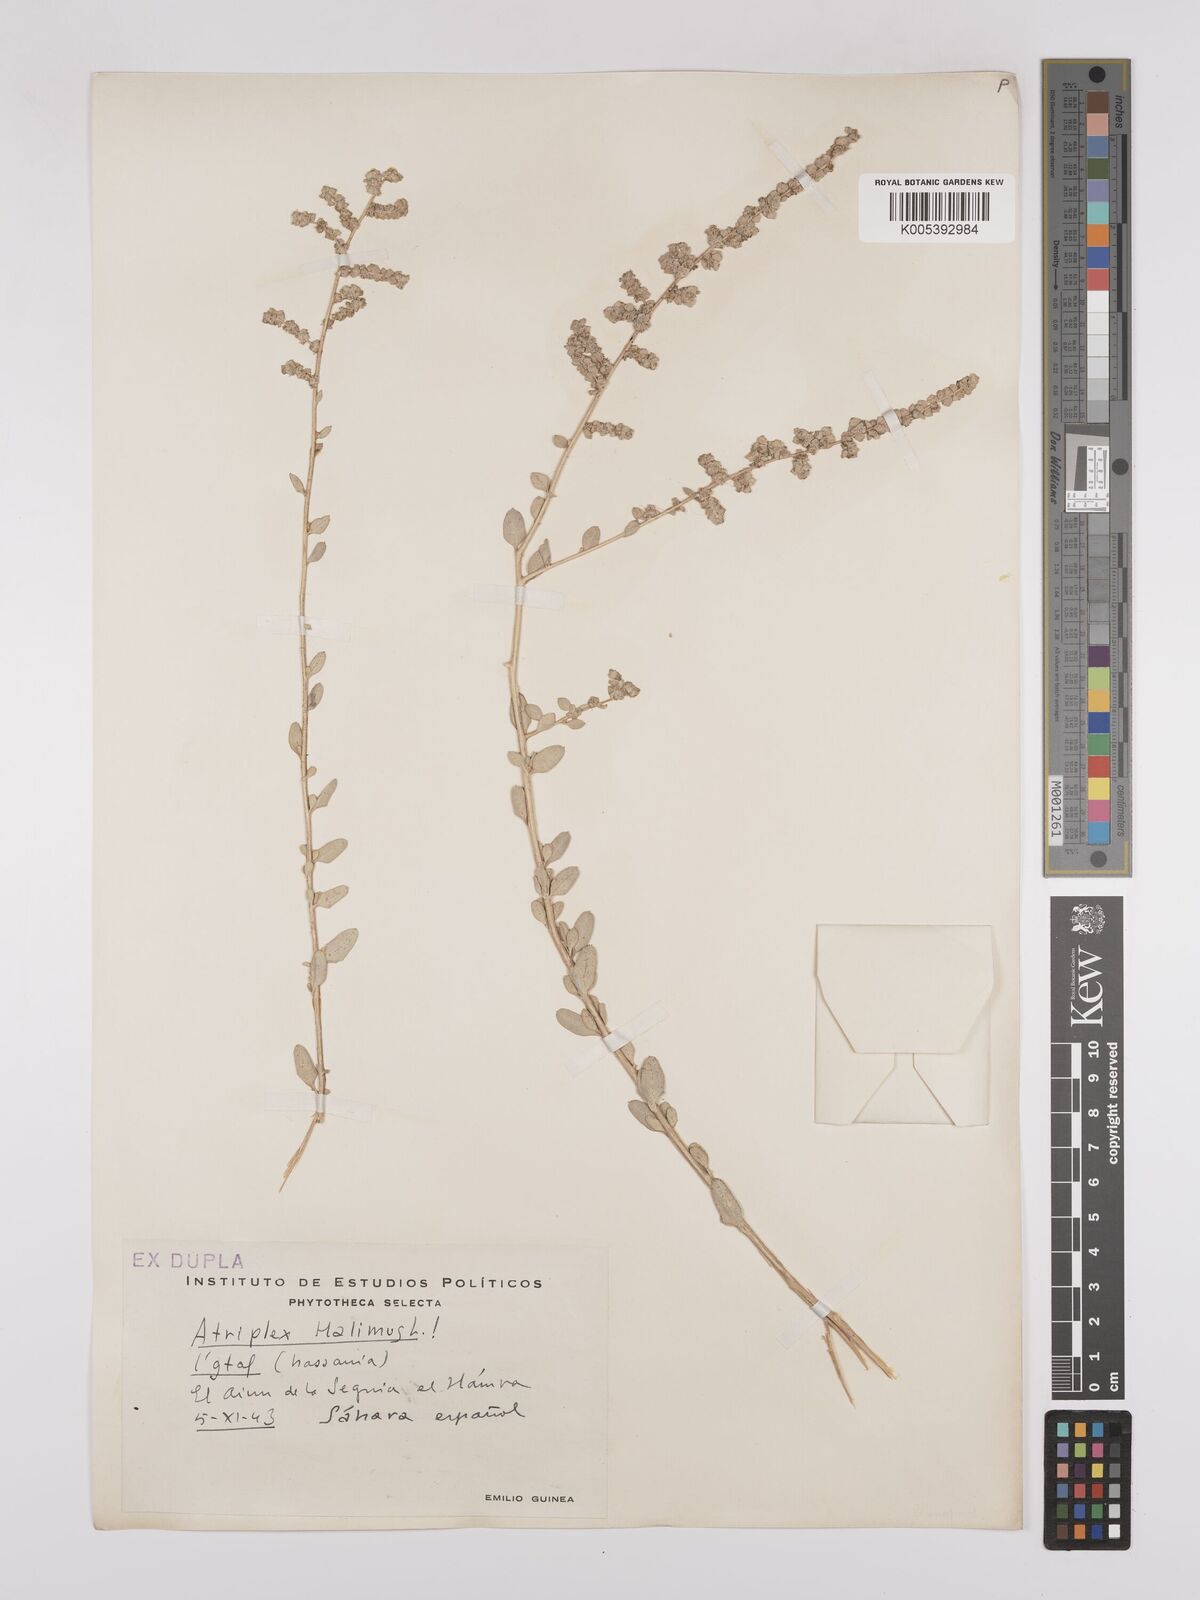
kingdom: Plantae
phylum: Tracheophyta
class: Magnoliopsida
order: Caryophyllales
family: Amaranthaceae
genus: Atriplex
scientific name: Atriplex
